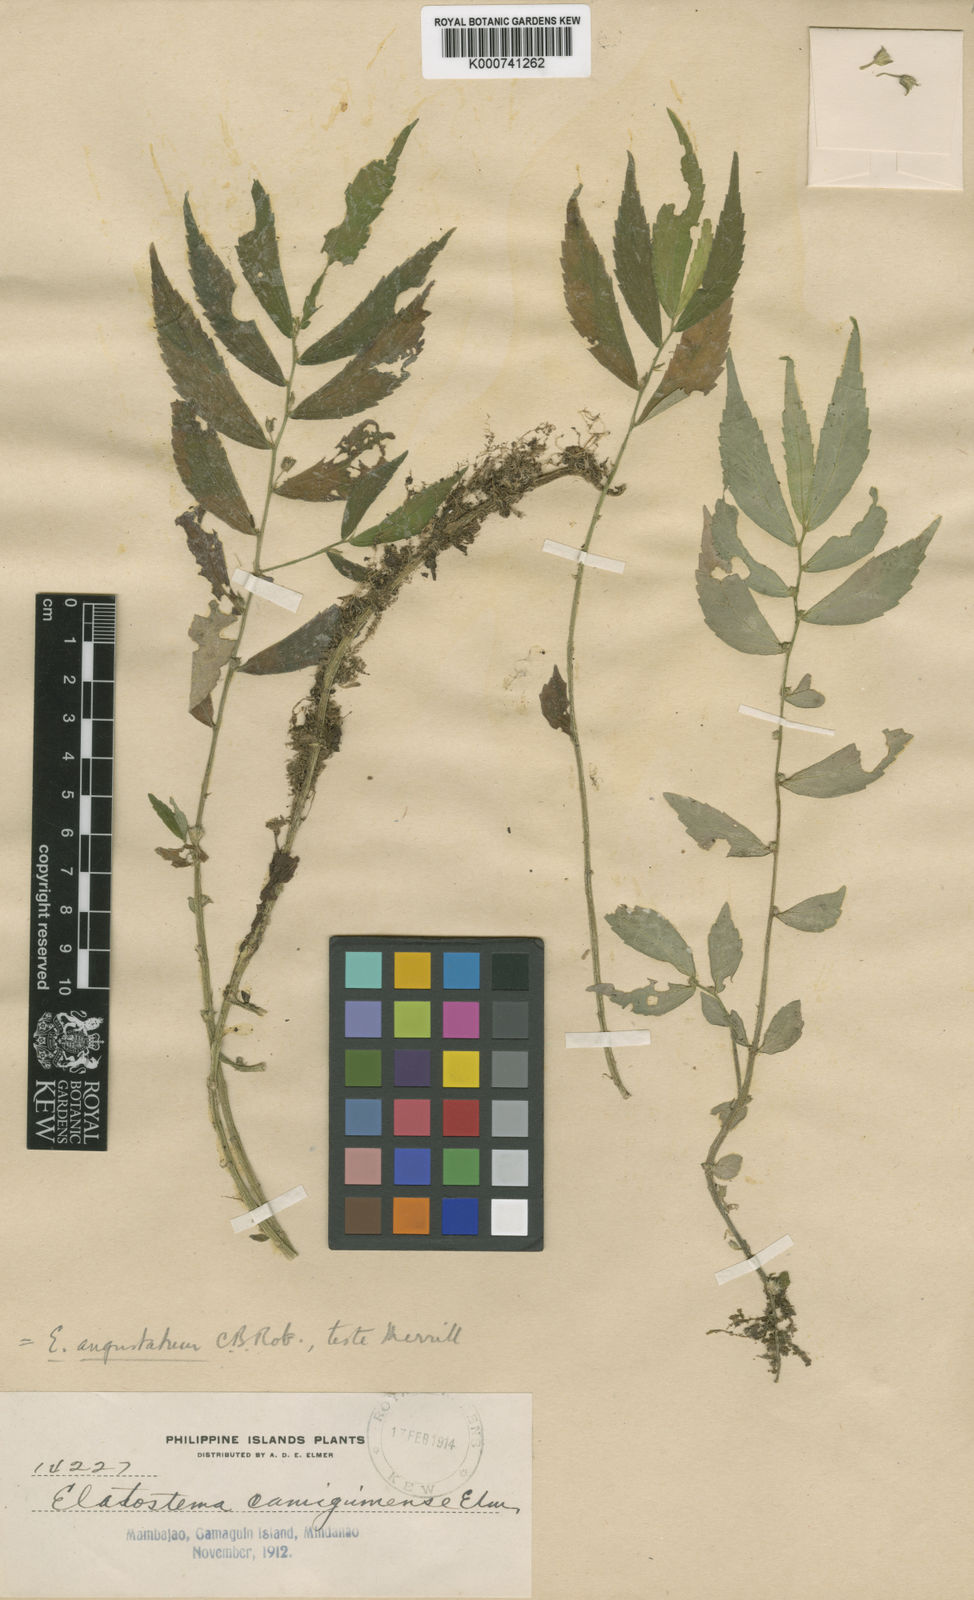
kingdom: Plantae
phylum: Tracheophyta
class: Magnoliopsida
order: Rosales
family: Urticaceae
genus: Elatostema
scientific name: Elatostema angustatum
